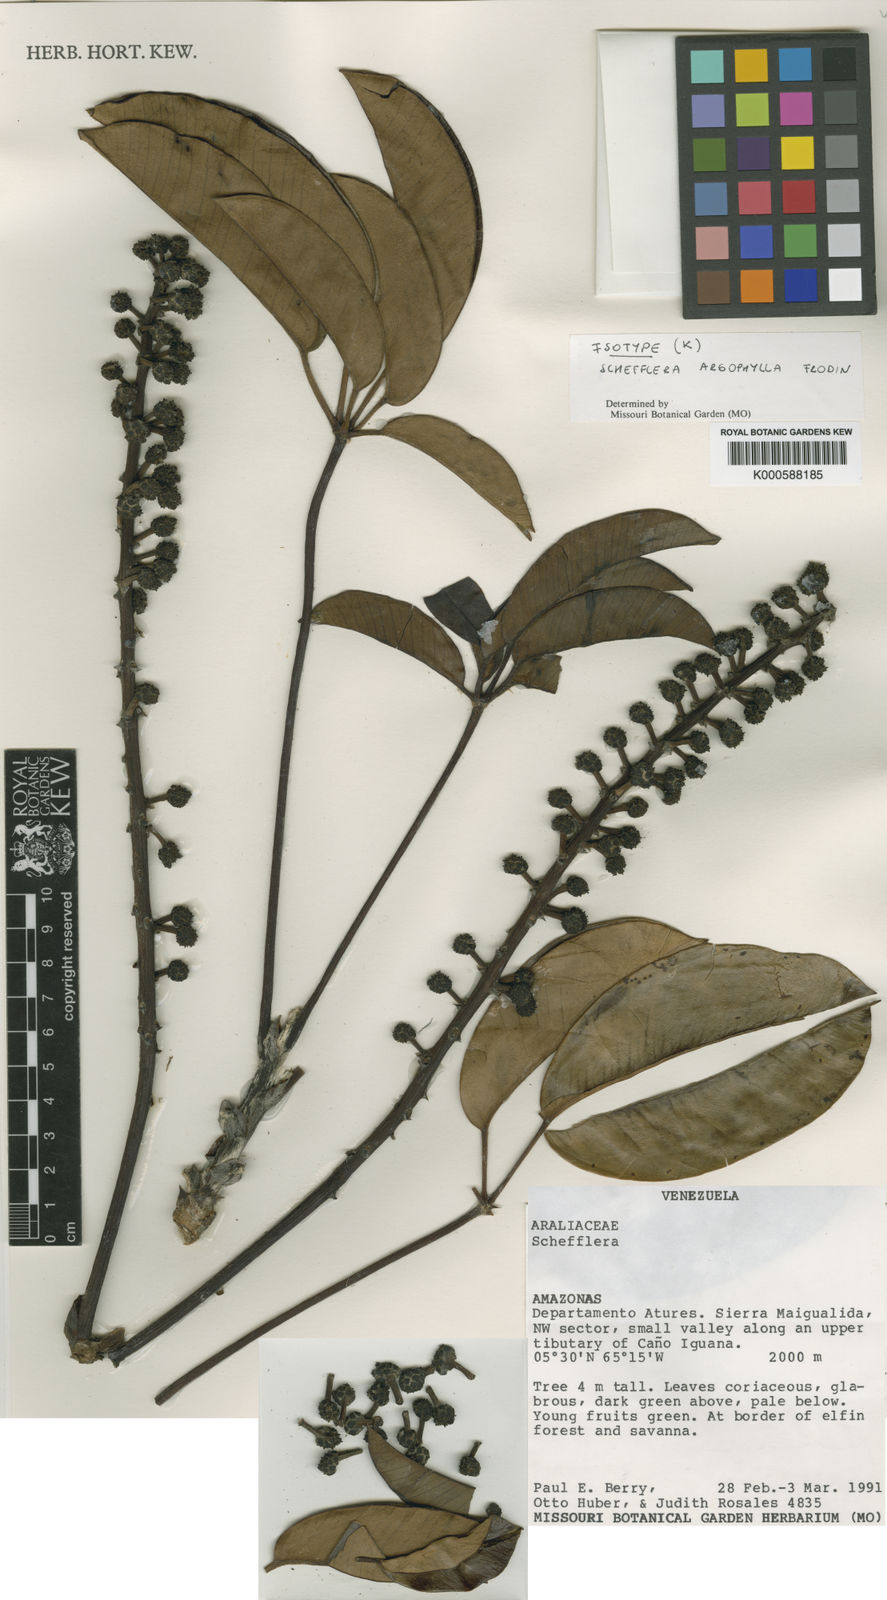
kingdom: Plantae
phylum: Tracheophyta
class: Magnoliopsida
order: Apiales
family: Araliaceae
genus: Sciodaphyllum
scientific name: Sciodaphyllum argophyllum
